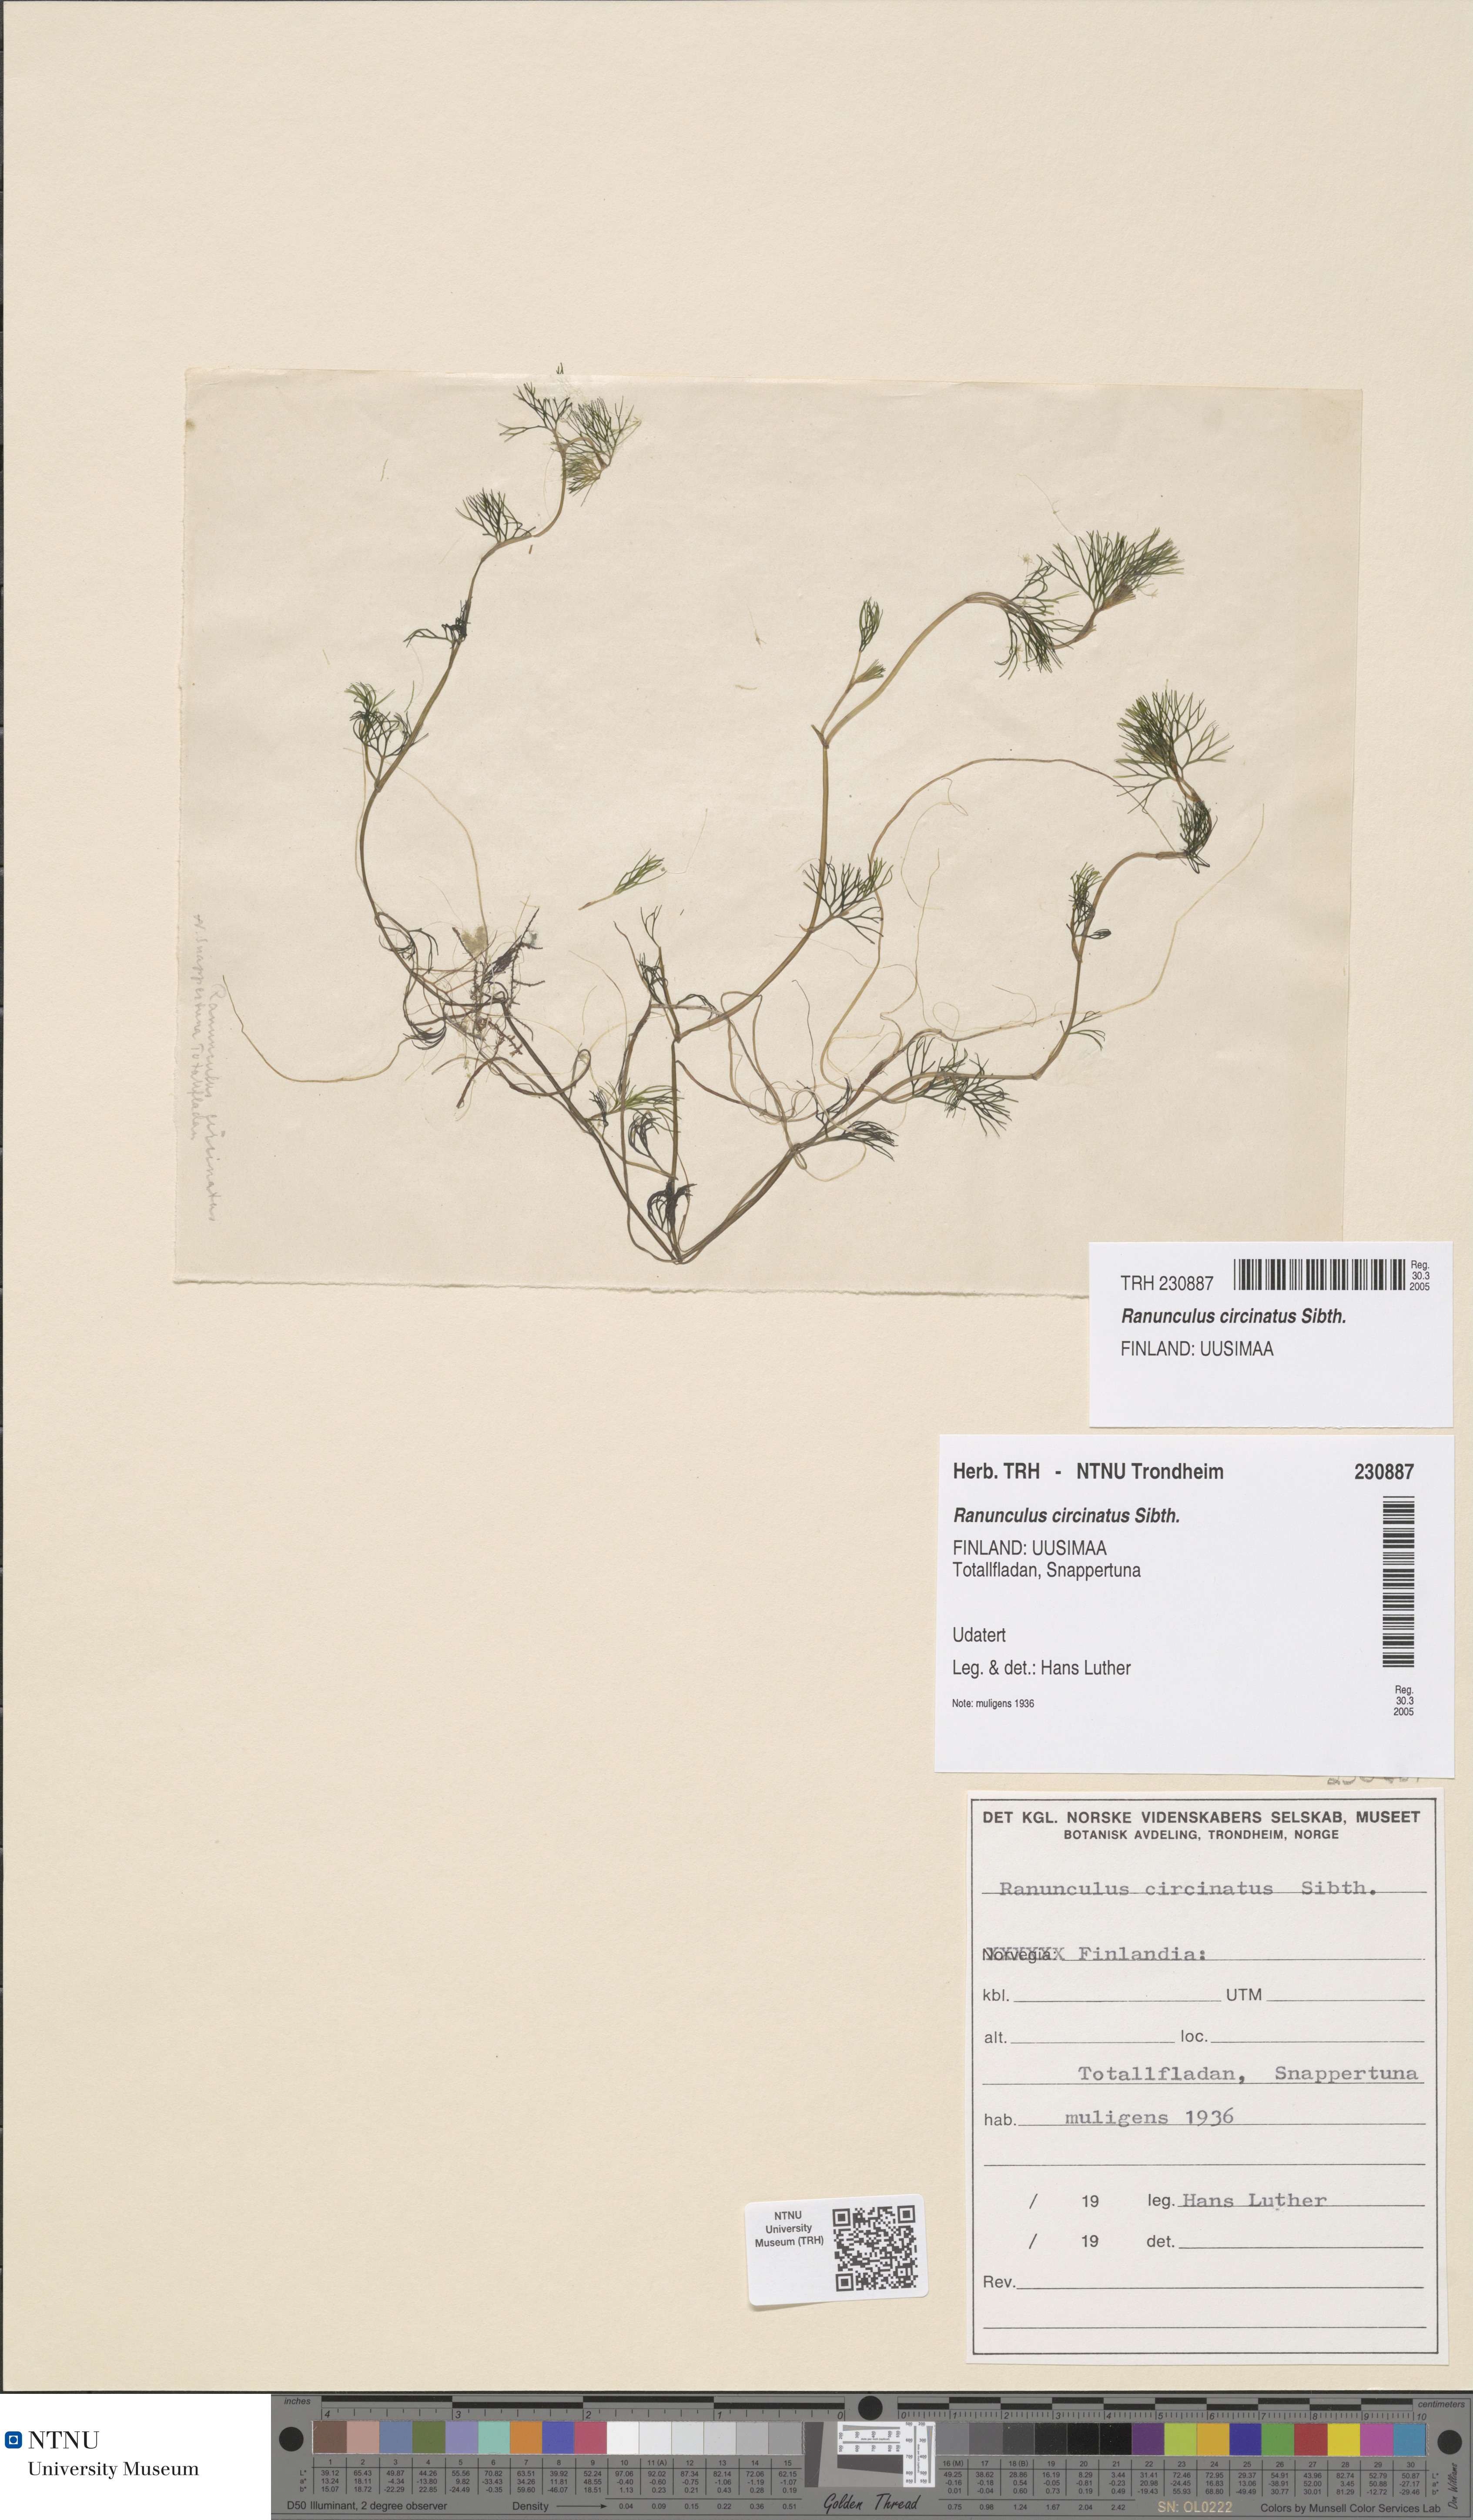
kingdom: Plantae
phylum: Tracheophyta
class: Magnoliopsida
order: Ranunculales
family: Ranunculaceae
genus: Ranunculus
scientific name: Ranunculus circinatus
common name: Fan-leaved water-crowfoot
